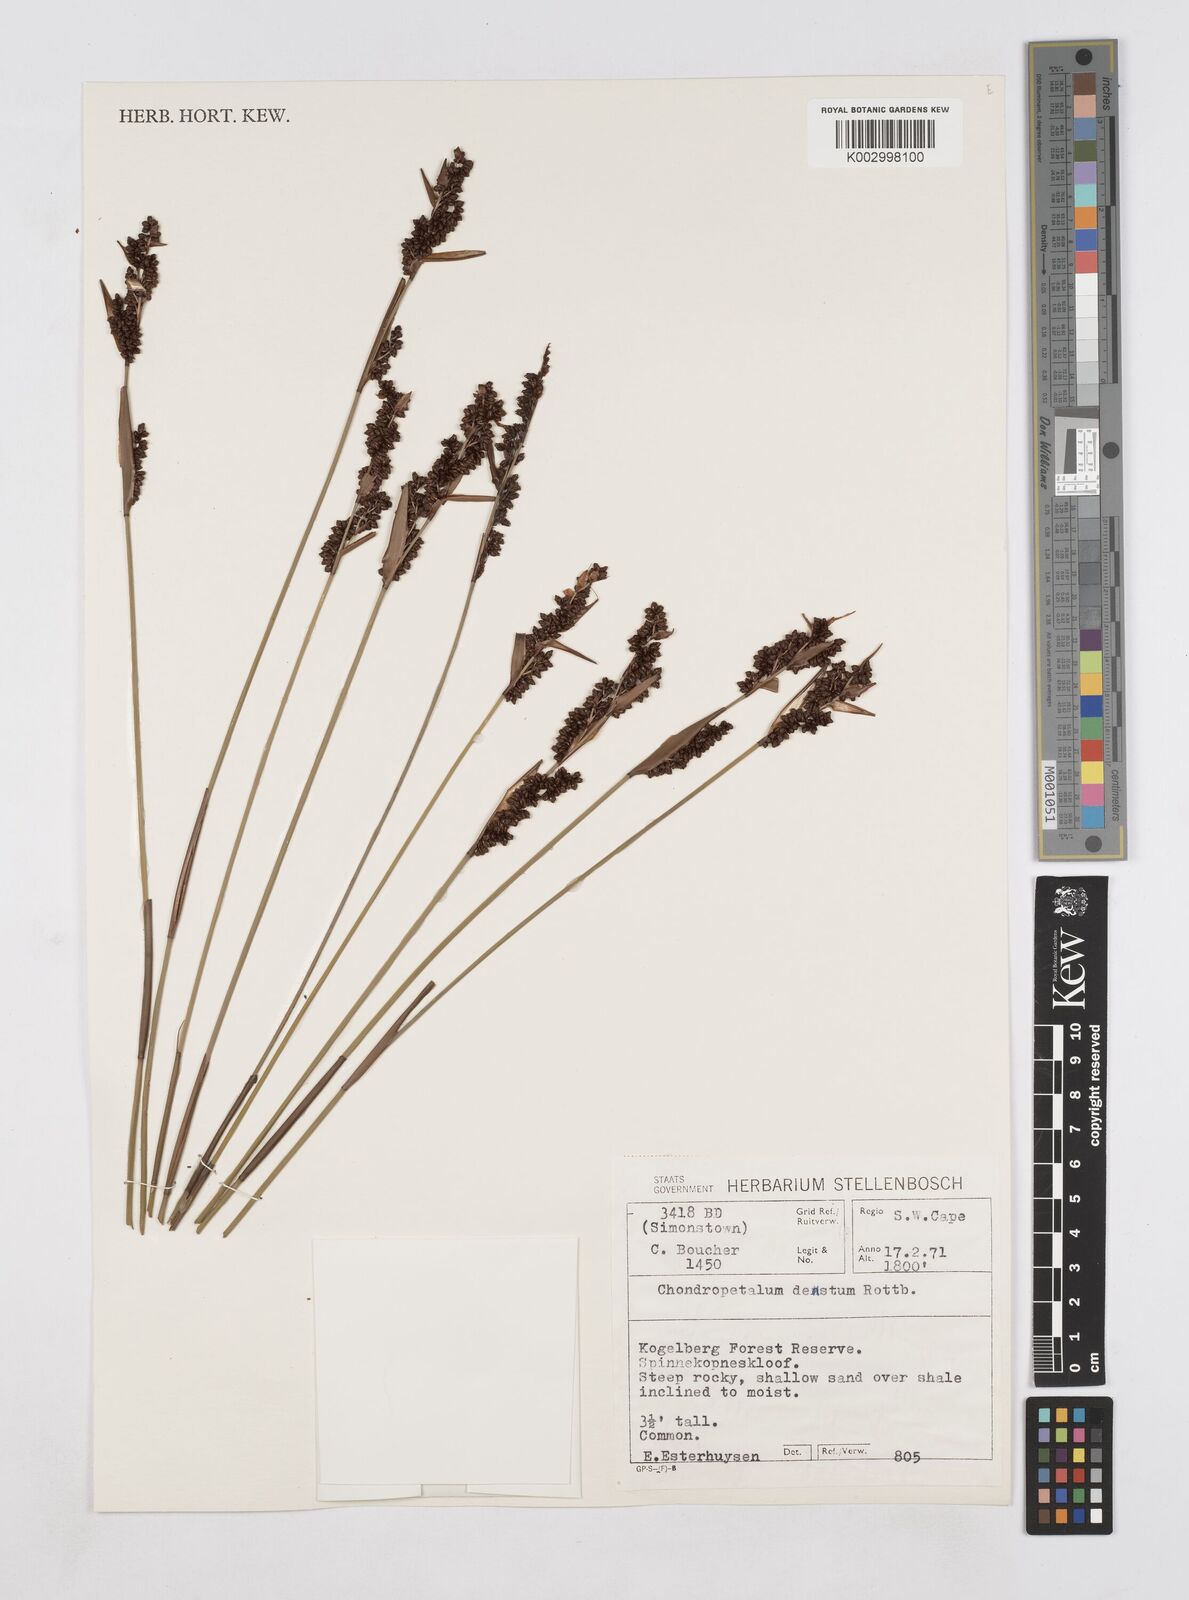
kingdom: Plantae
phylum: Tracheophyta
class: Liliopsida
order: Poales
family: Restionaceae
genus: Elegia
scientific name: Elegia deusta
